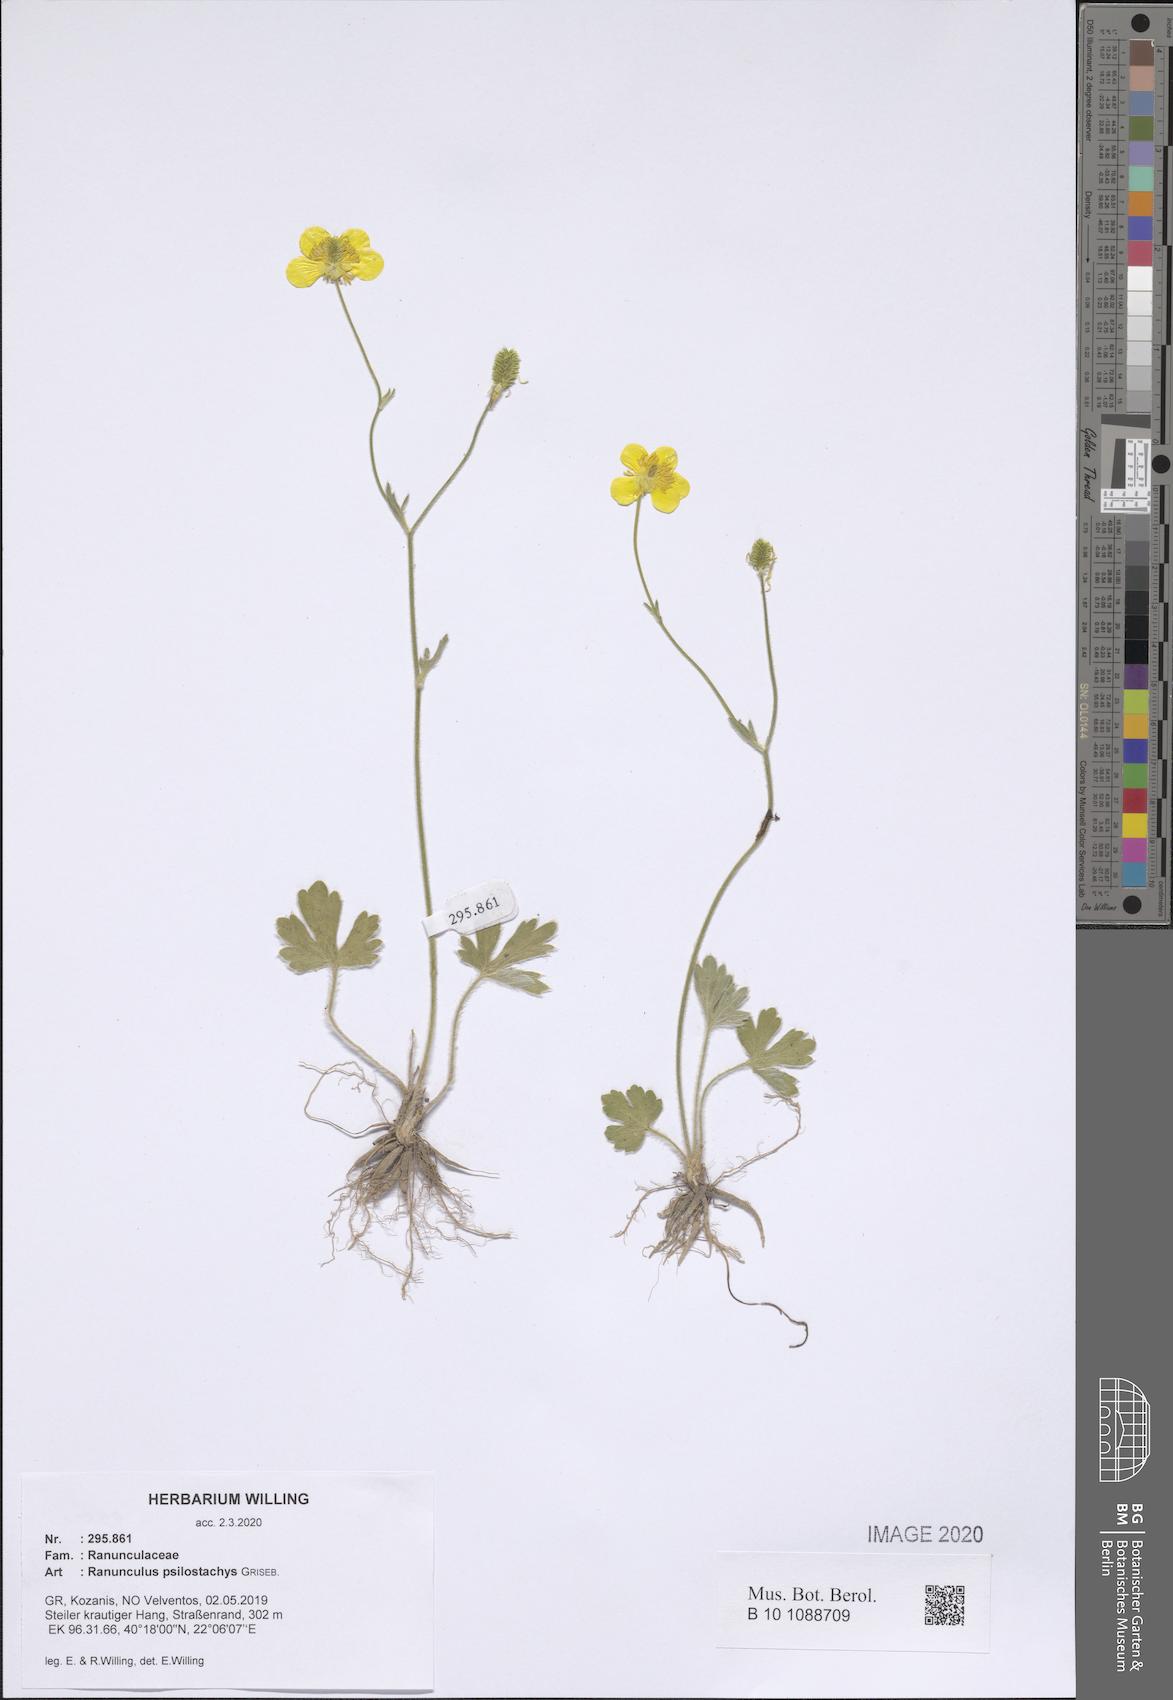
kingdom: Plantae
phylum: Tracheophyta
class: Magnoliopsida
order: Ranunculales
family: Ranunculaceae
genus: Ranunculus
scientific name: Ranunculus psilostachys
